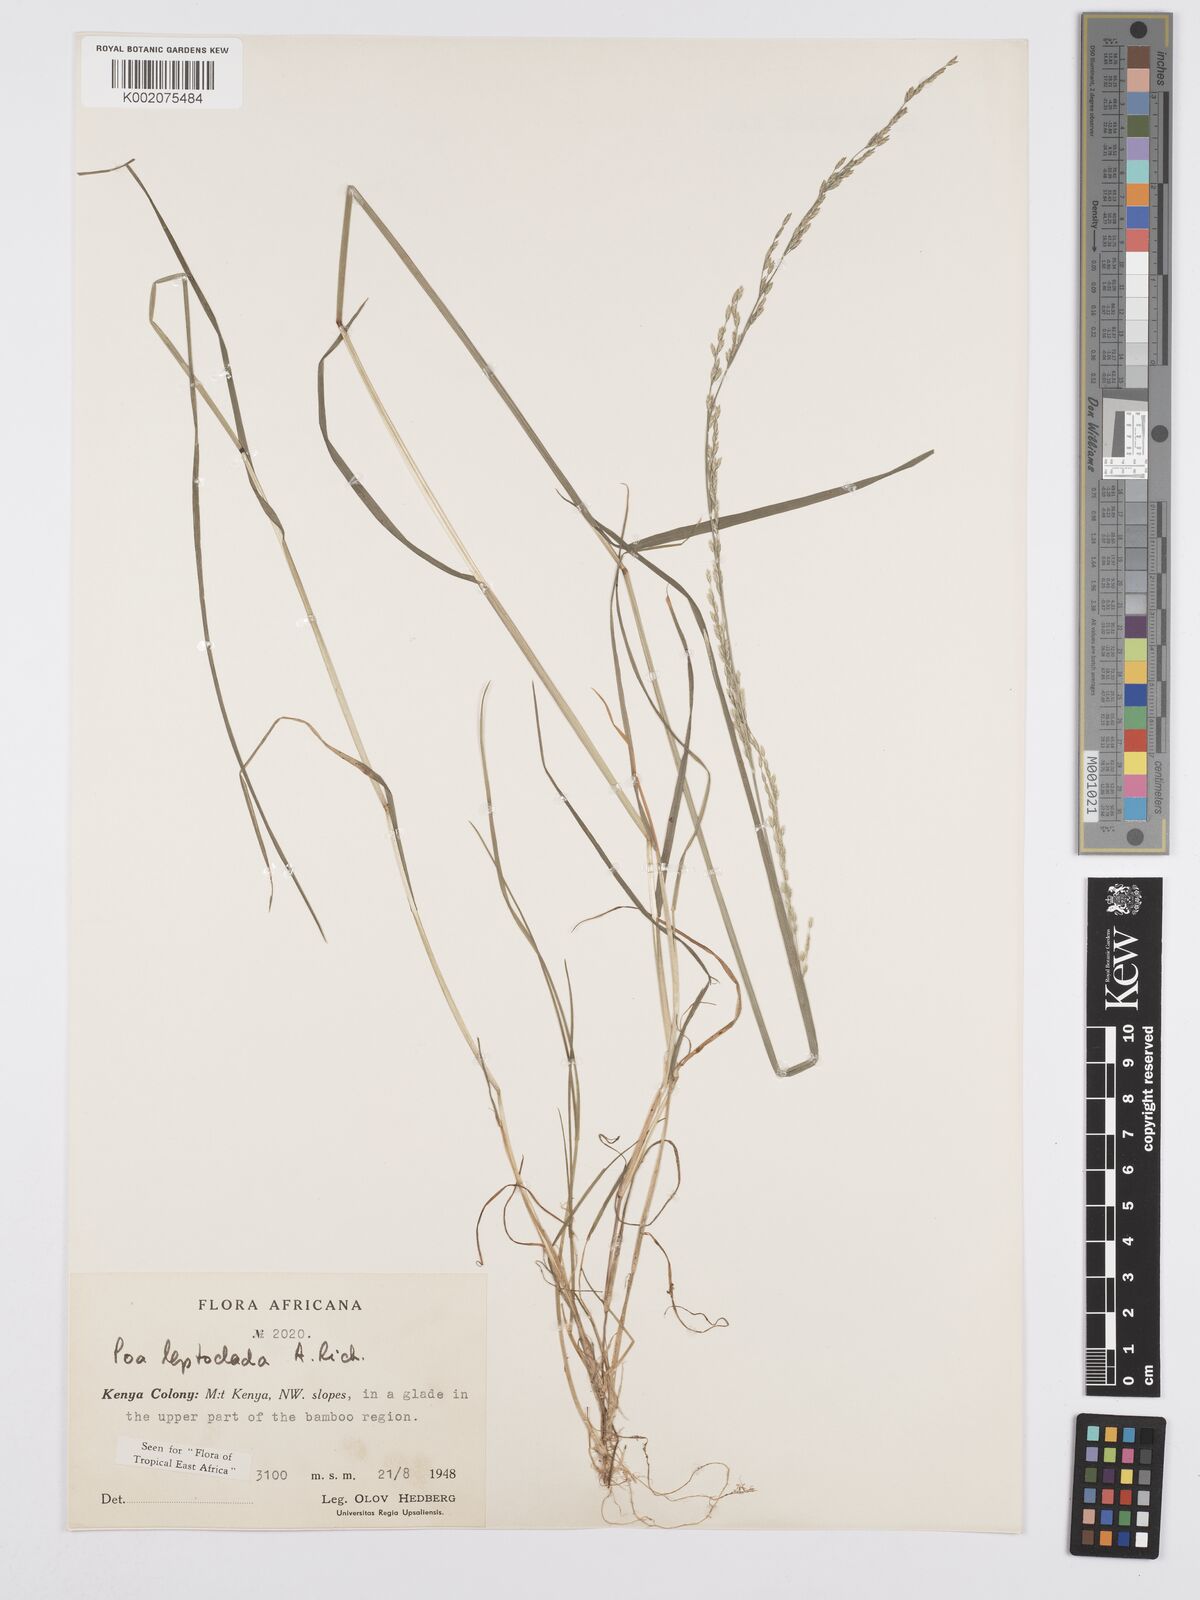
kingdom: Plantae
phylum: Tracheophyta
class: Liliopsida
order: Poales
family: Poaceae
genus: Poa
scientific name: Poa leptoclada
